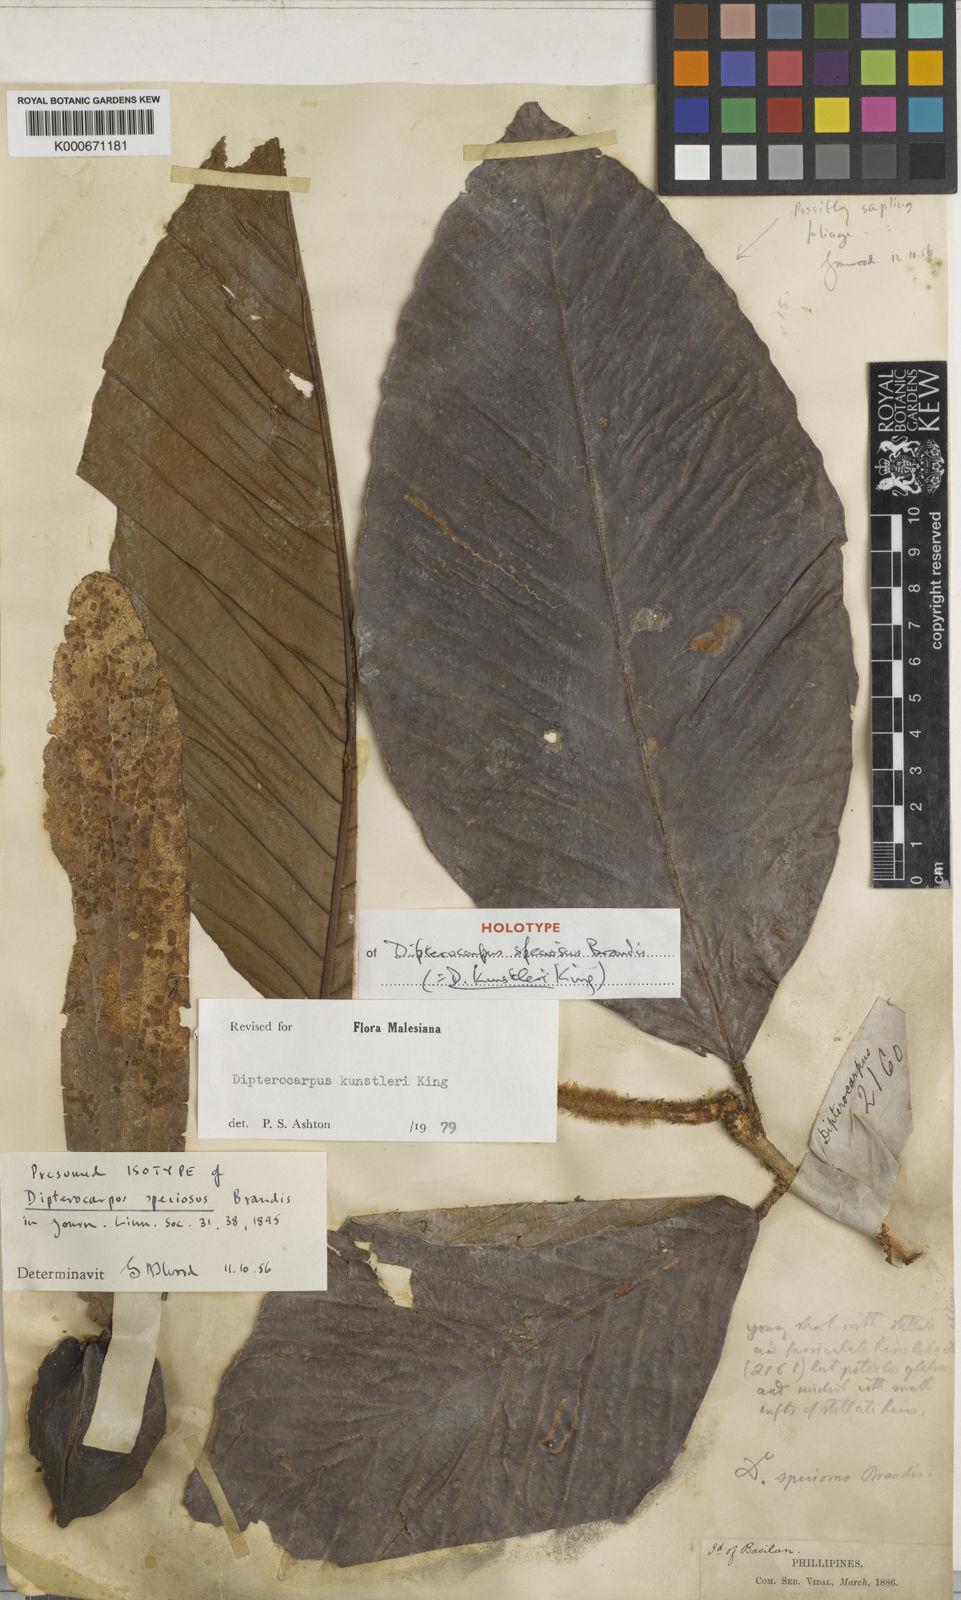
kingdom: Plantae
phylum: Tracheophyta
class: Magnoliopsida
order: Malvales
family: Dipterocarpaceae
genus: Dipterocarpus
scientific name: Dipterocarpus kunstleri
